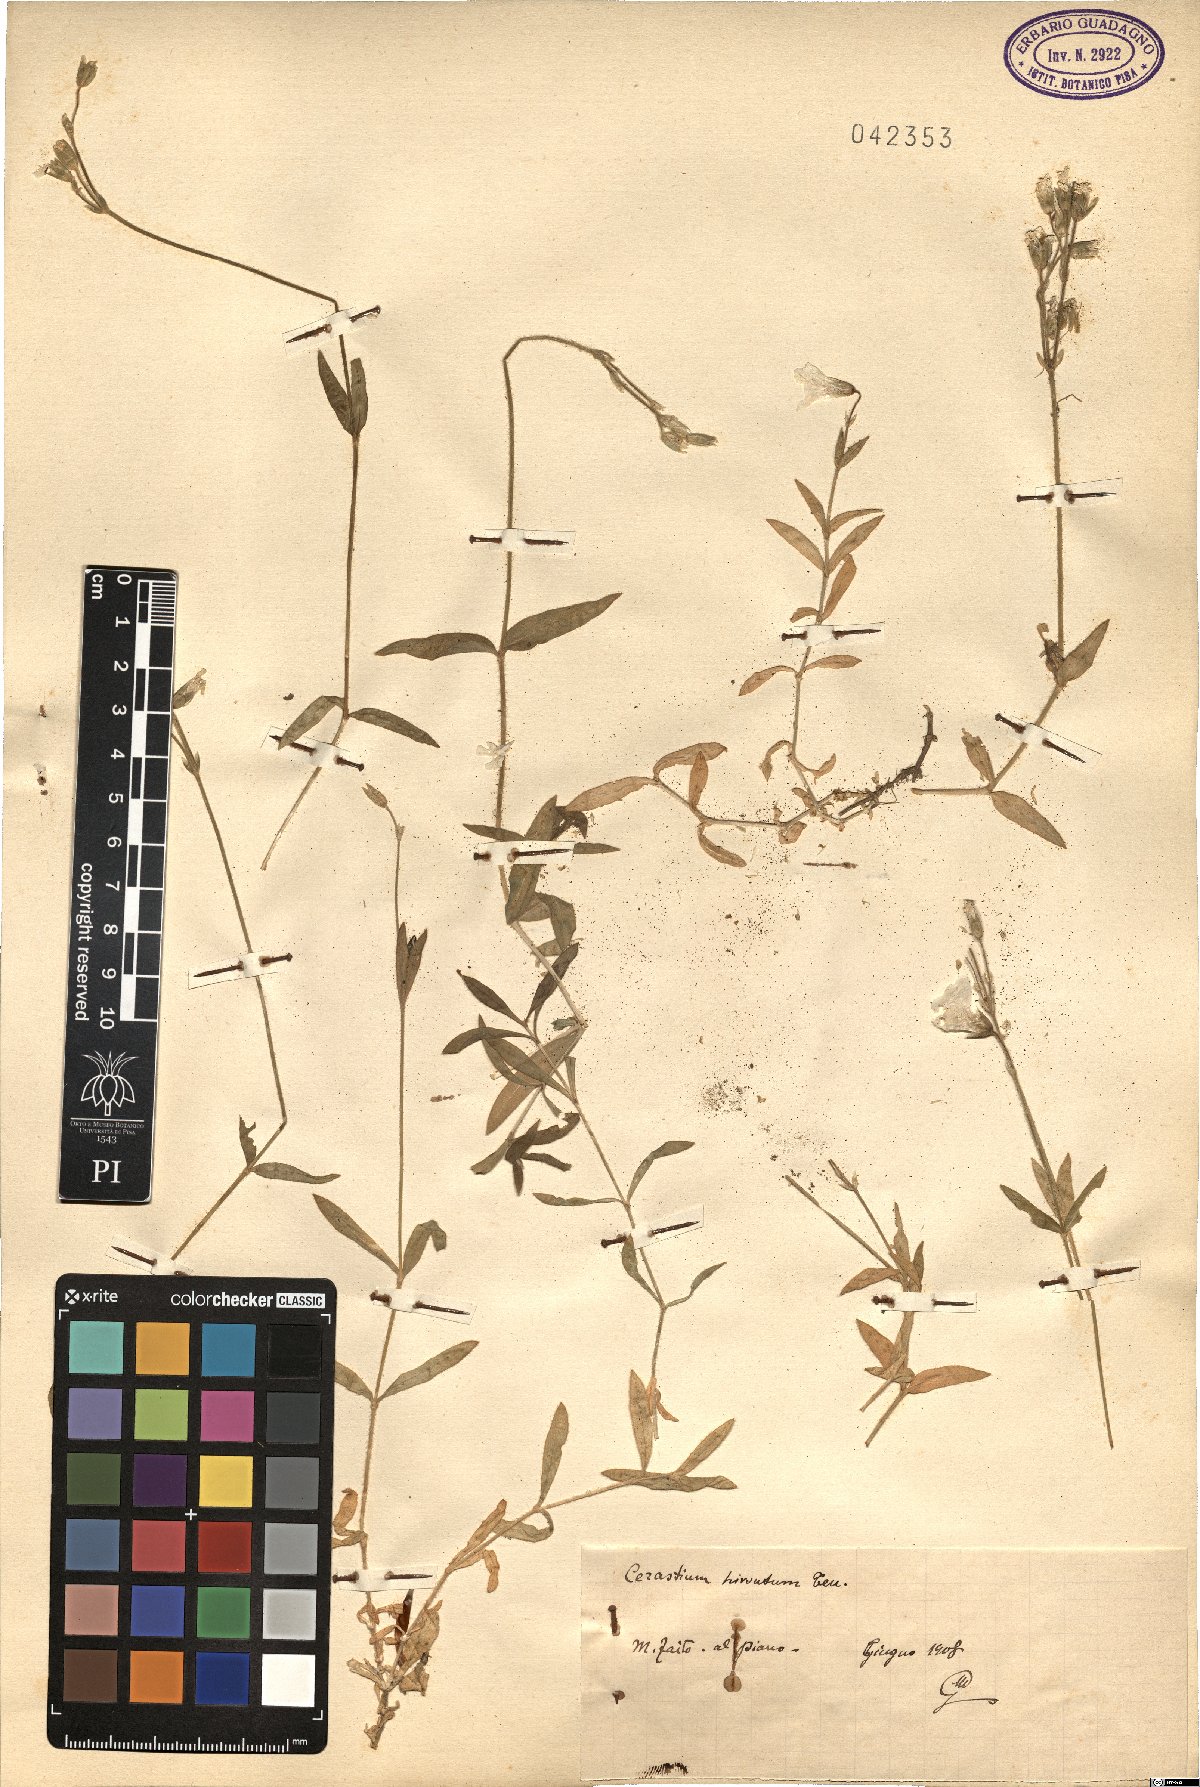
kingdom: Plantae
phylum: Tracheophyta
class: Magnoliopsida
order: Caryophyllales
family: Caryophyllaceae
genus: Cerastium
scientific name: Cerastium scaranii
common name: Italian mouse-ear
